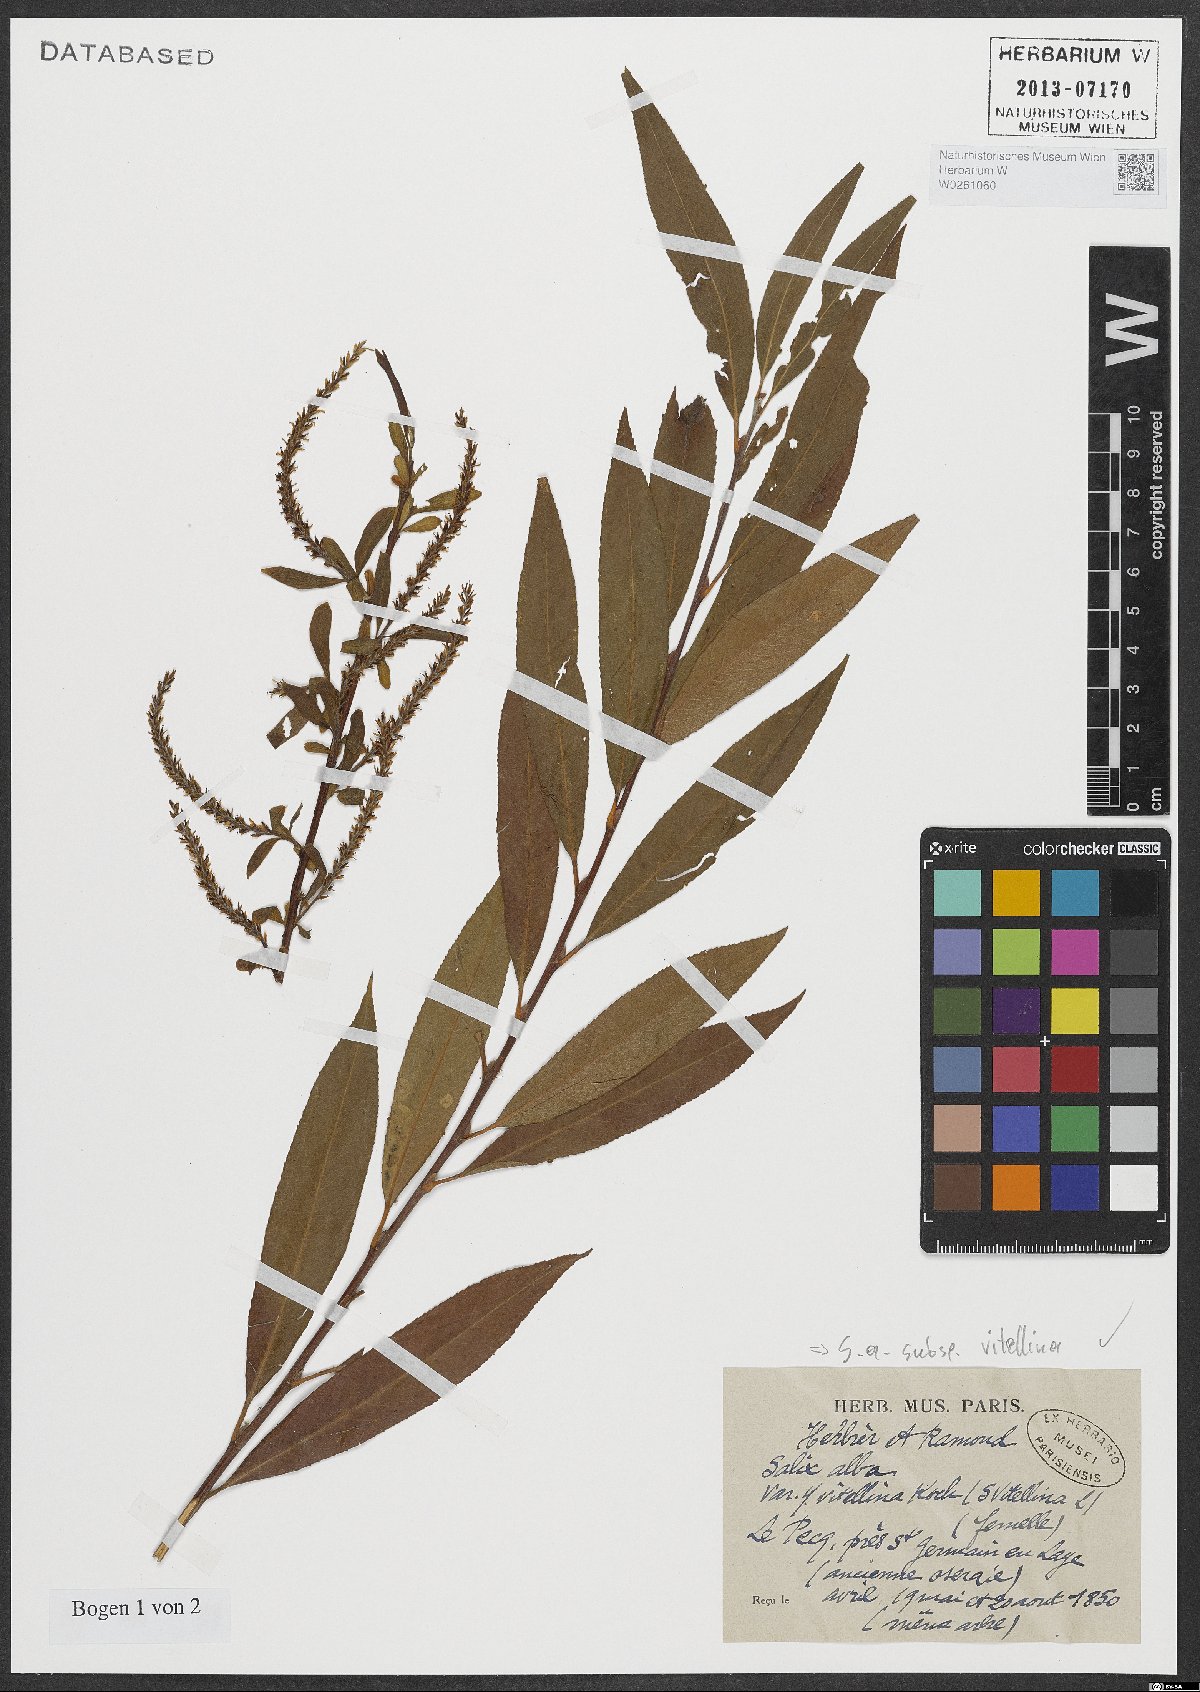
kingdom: Plantae
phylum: Tracheophyta
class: Magnoliopsida
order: Malpighiales
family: Salicaceae
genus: Salix
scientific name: Salix alba
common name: White willow
